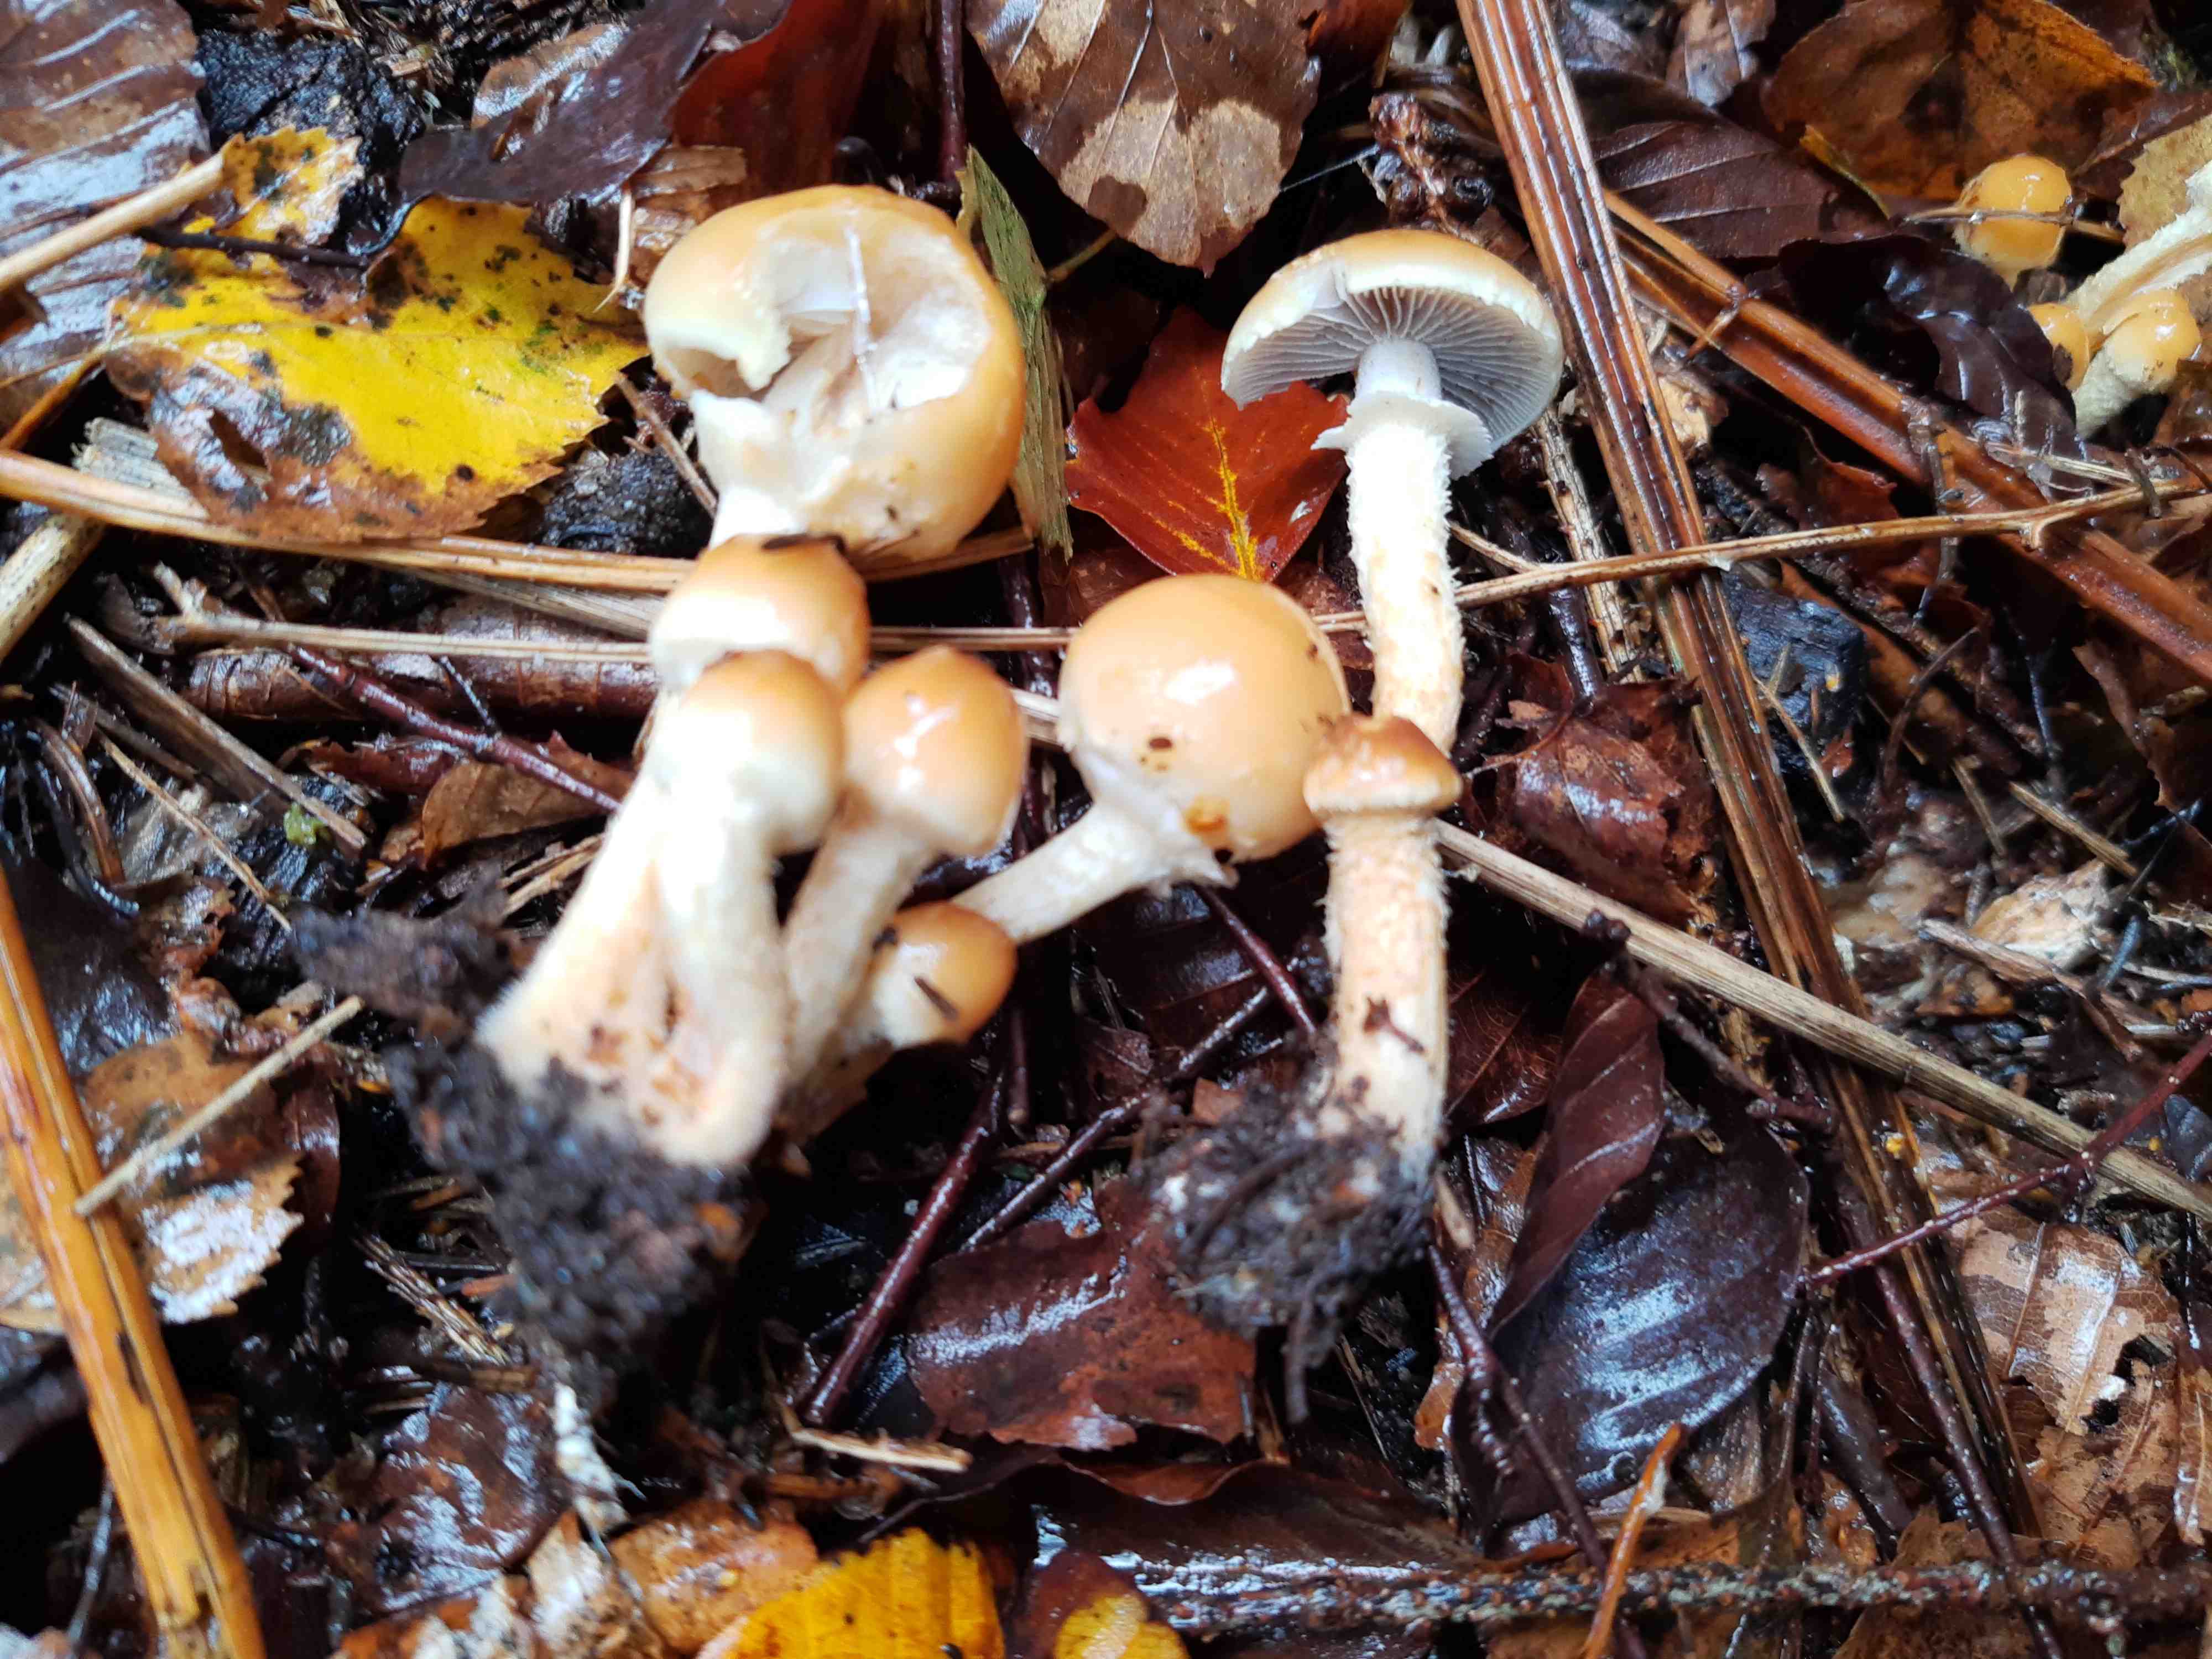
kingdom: Fungi
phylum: Basidiomycota
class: Agaricomycetes
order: Agaricales
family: Strophariaceae
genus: Leratiomyces
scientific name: Leratiomyces squamosus
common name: skællet bredblad
